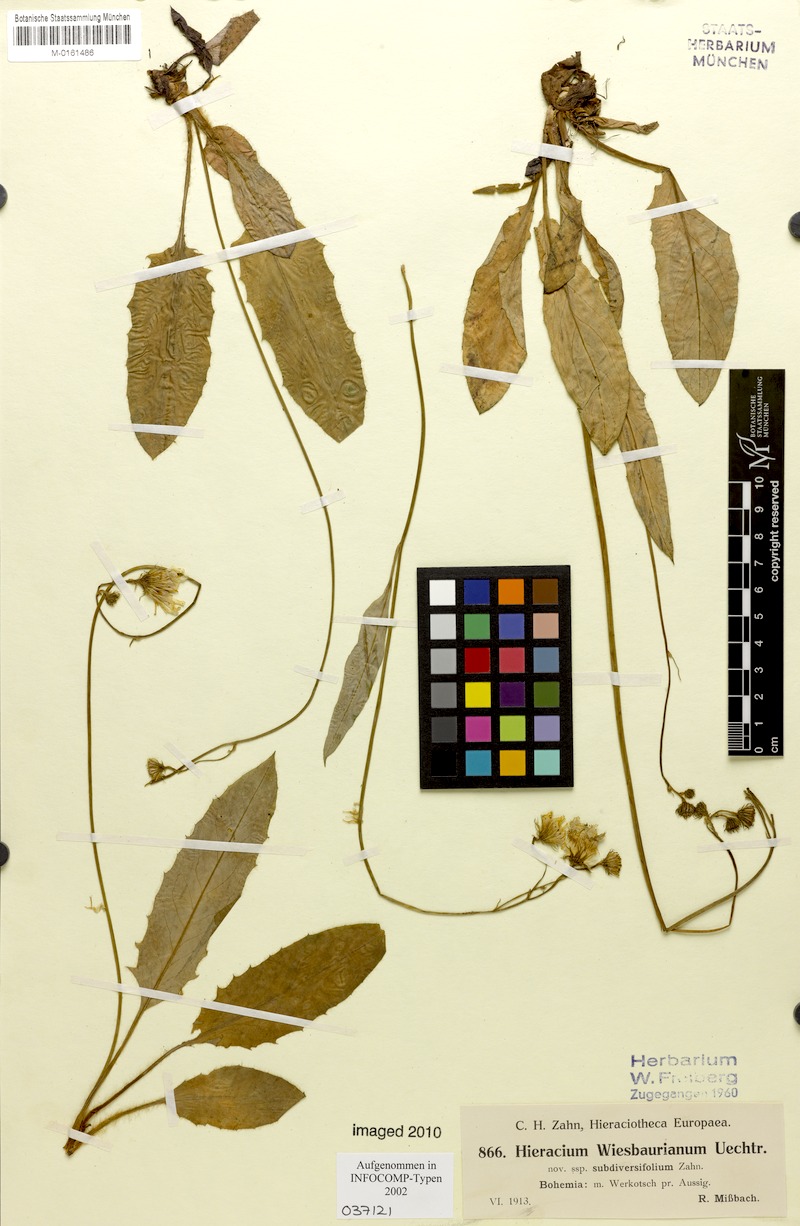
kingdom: Plantae
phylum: Tracheophyta
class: Magnoliopsida
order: Asterales
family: Asteraceae
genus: Hieracium
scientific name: Hieracium hypochoeroides
